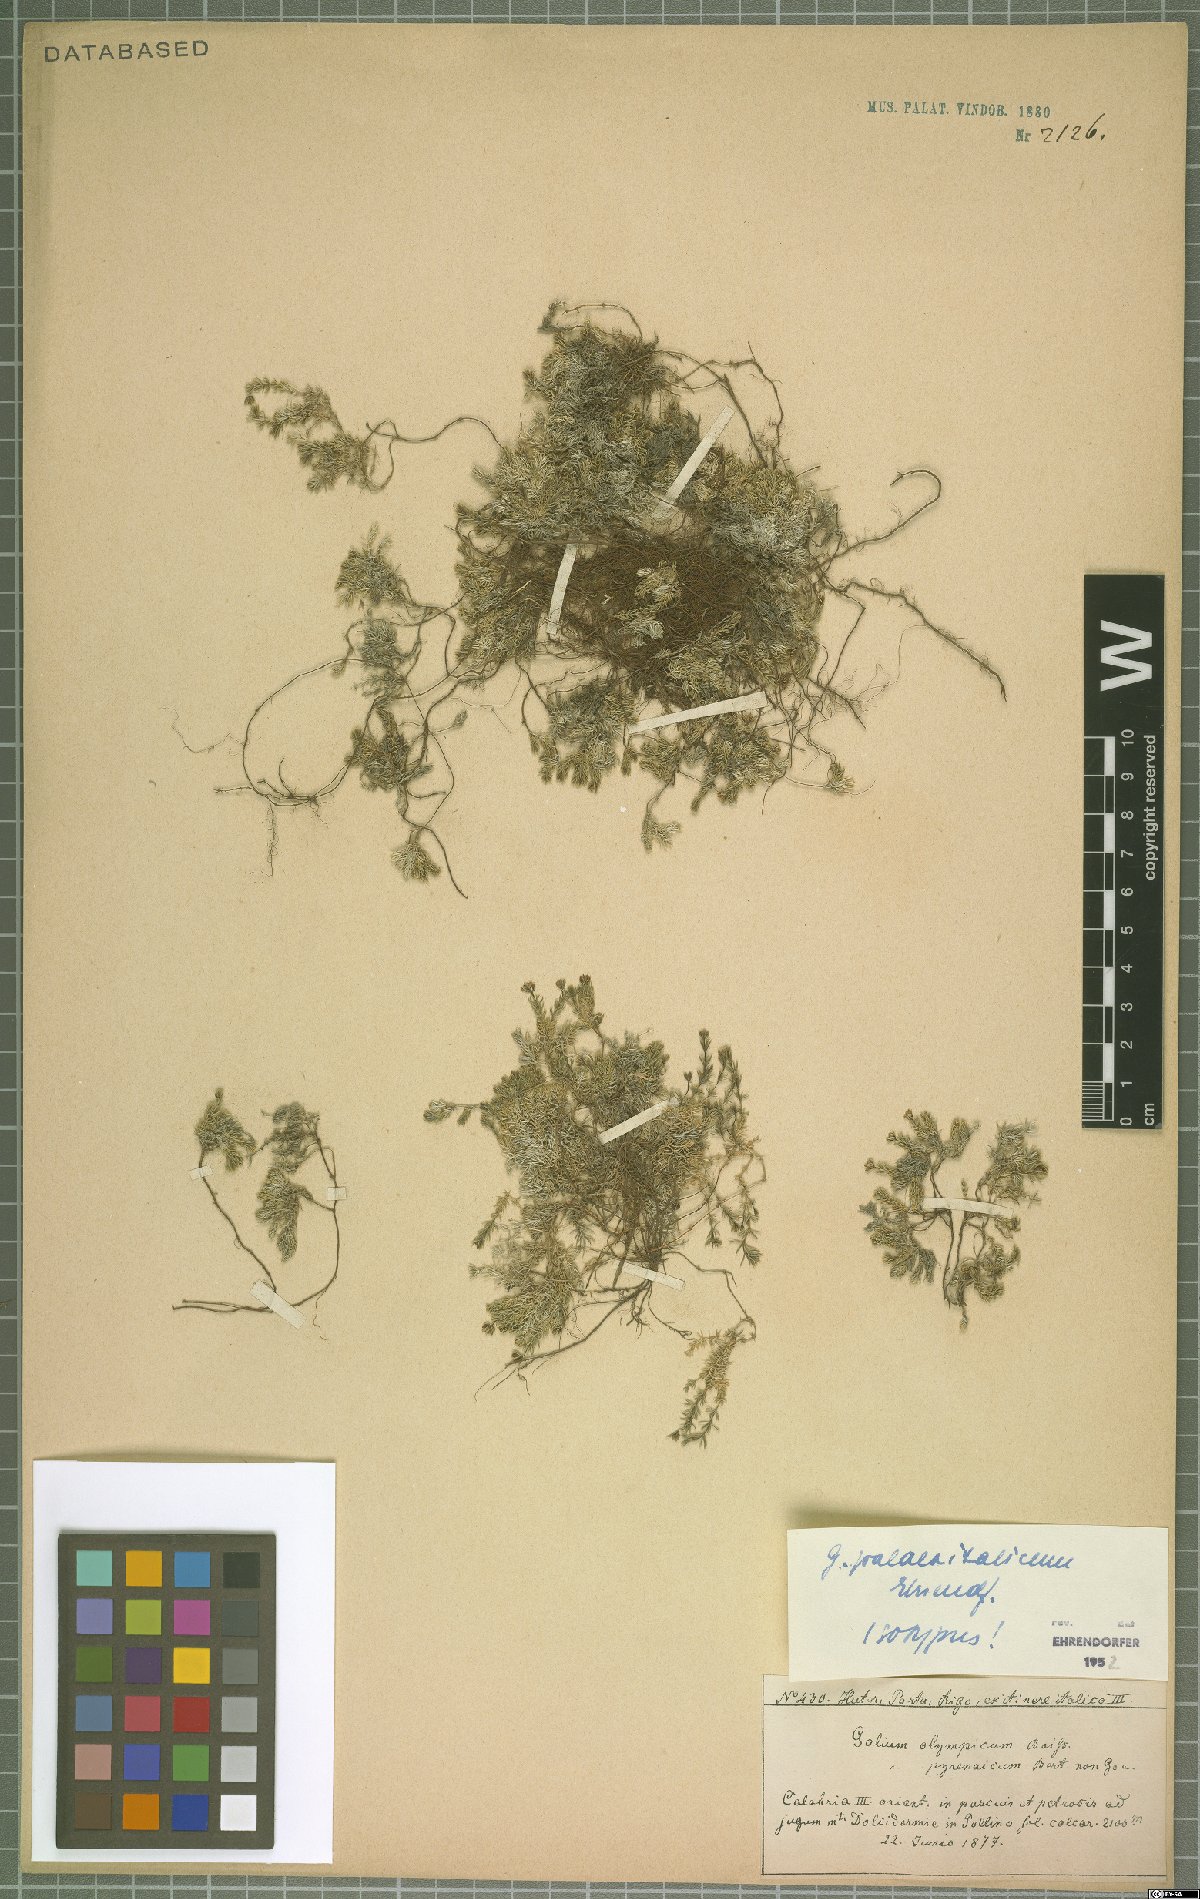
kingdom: Plantae
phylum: Tracheophyta
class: Magnoliopsida
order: Gentianales
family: Rubiaceae
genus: Galium
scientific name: Galium palaeoitalicum
